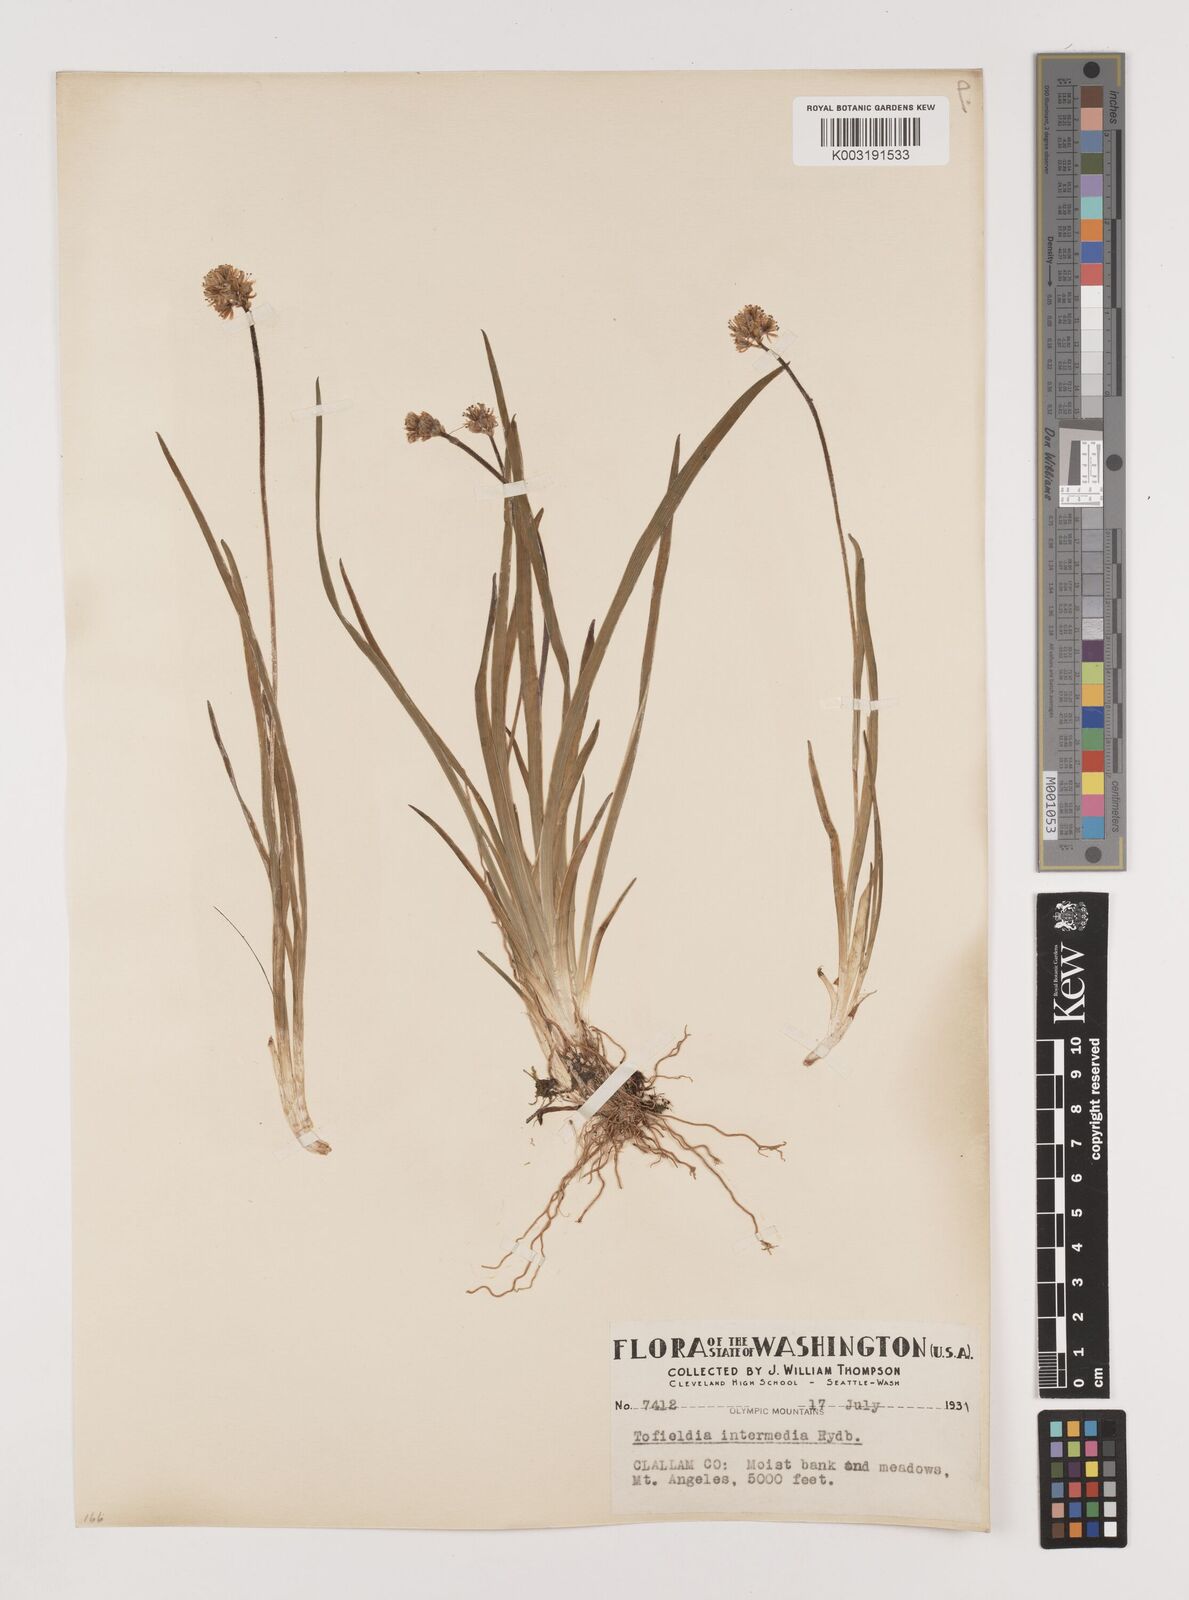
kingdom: Plantae
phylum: Tracheophyta
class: Liliopsida
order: Alismatales
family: Tofieldiaceae
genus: Triantha
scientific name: Triantha occidentalis
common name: Western false asphodel
